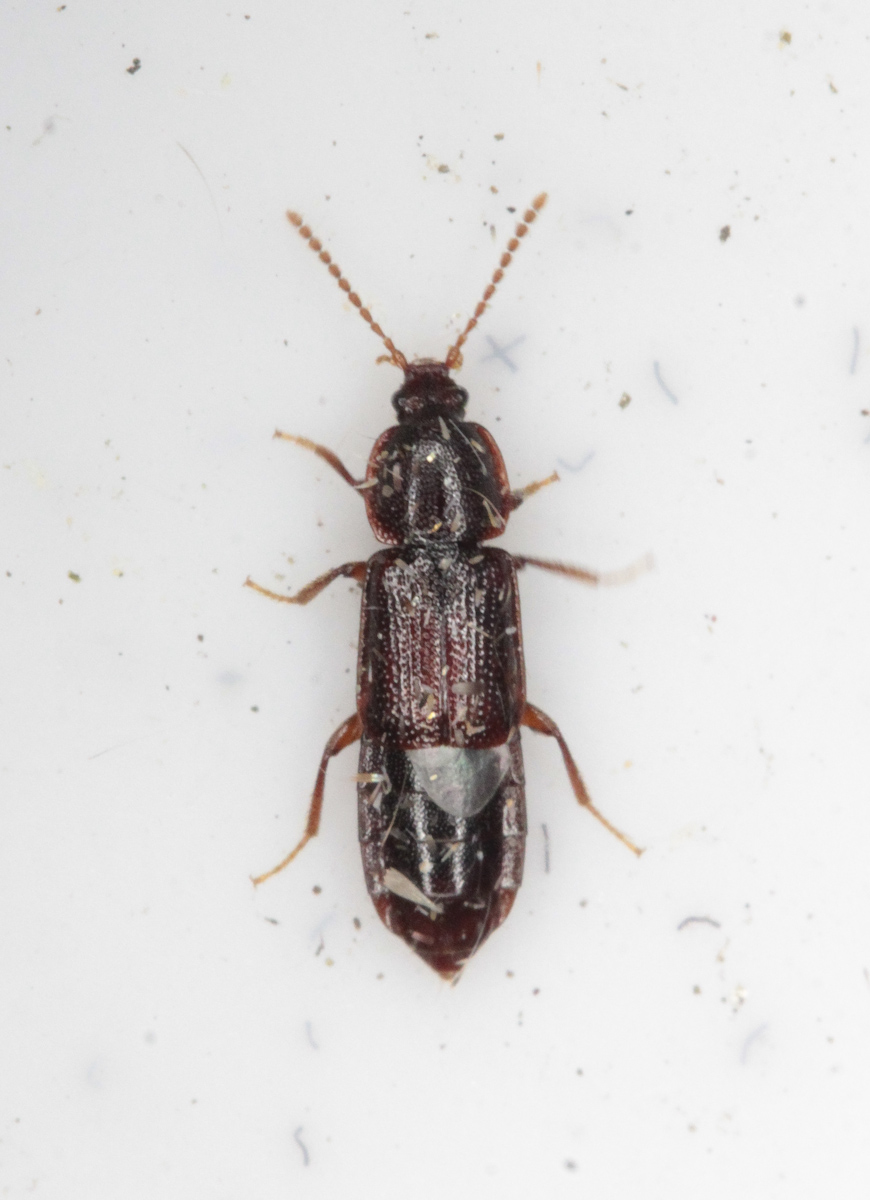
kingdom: Animalia
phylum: Arthropoda
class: Insecta
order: Coleoptera
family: Staphylinidae
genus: Acidota
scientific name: Acidota crenata
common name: Staph beetle
